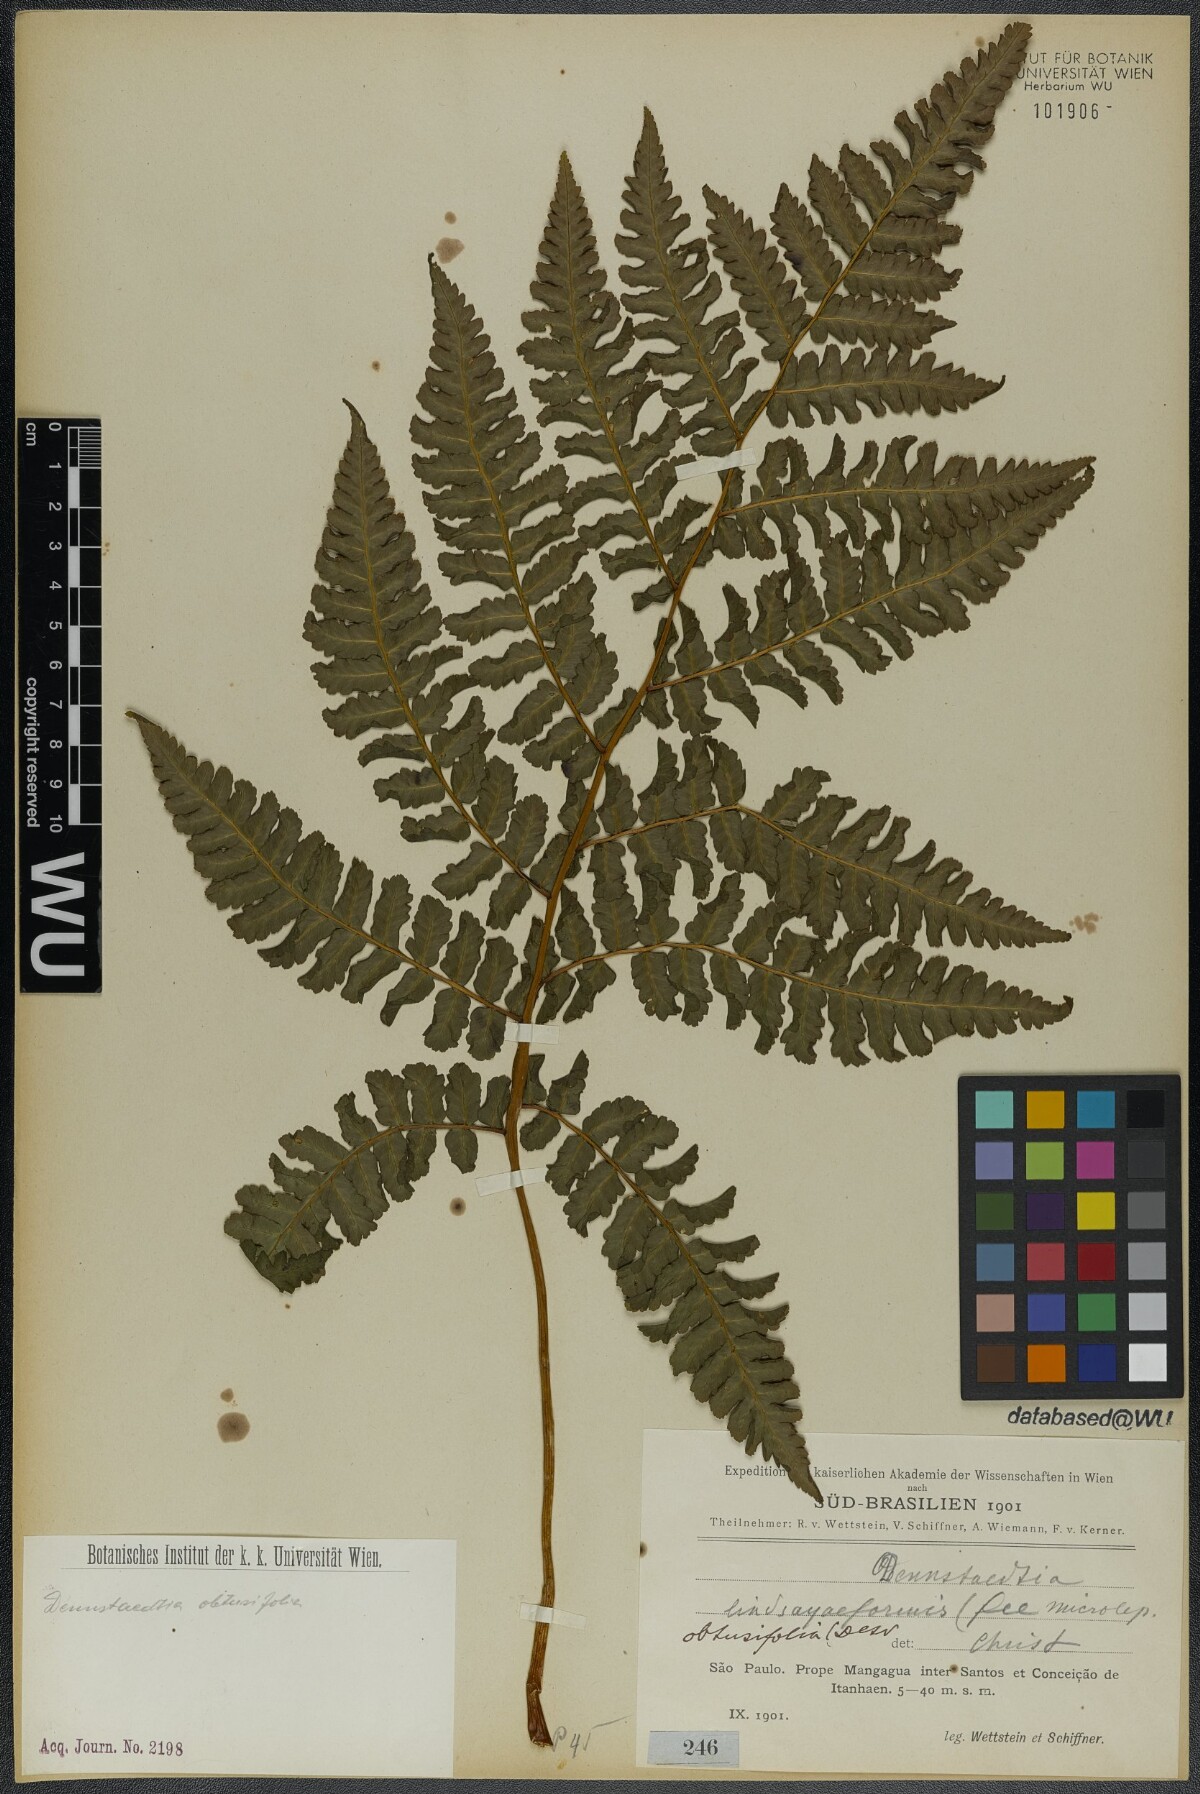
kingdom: Plantae
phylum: Tracheophyta
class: Polypodiopsida
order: Polypodiales
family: Dennstaedtiaceae
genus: Dennstaedtia
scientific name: Dennstaedtia obtusifolia
